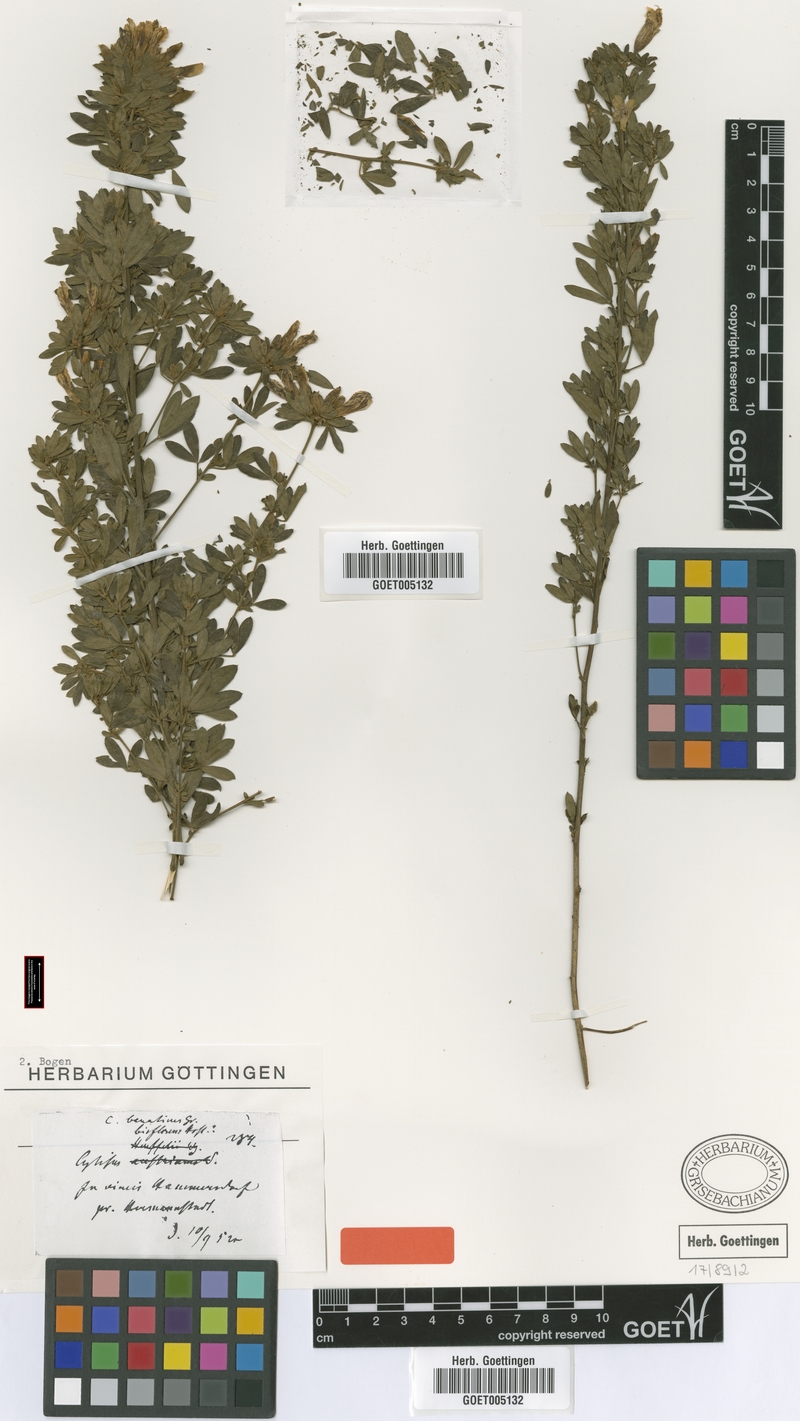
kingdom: Plantae
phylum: Tracheophyta
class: Magnoliopsida
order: Fabales
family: Fabaceae
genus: Chamaecytisus
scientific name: Chamaecytisus banaticus
